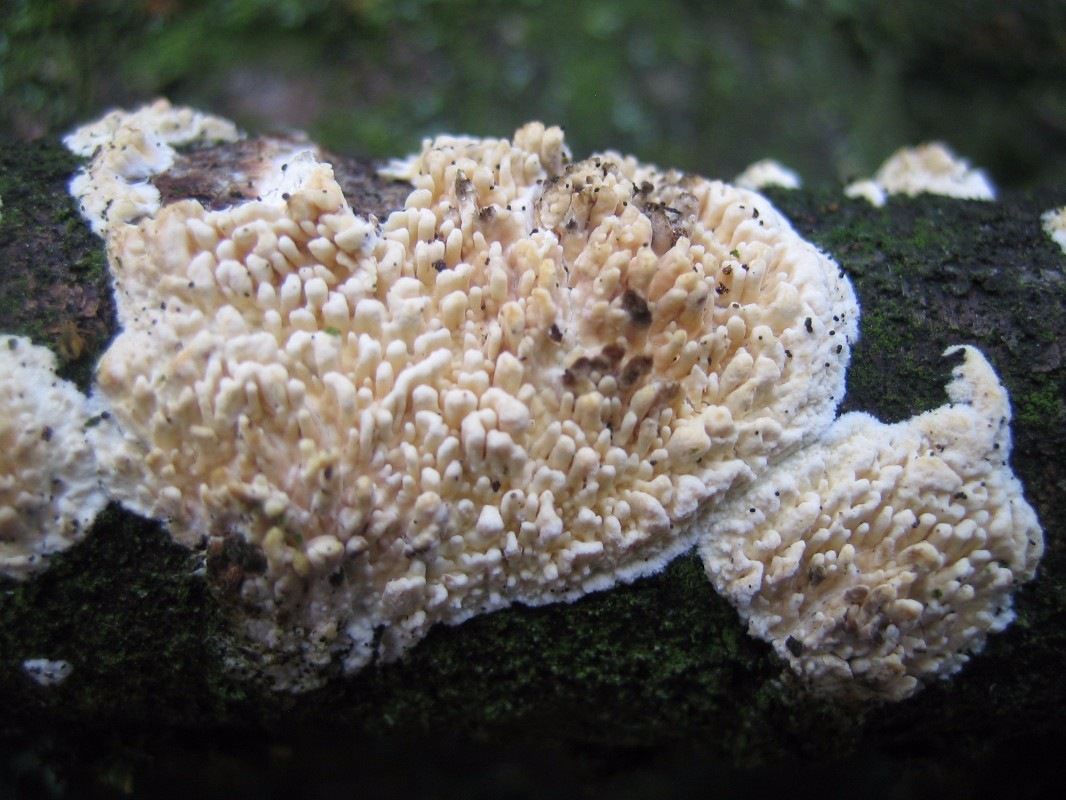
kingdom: Fungi
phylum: Basidiomycota
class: Agaricomycetes
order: Hymenochaetales
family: Schizoporaceae
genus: Xylodon
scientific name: Xylodon radula
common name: grovtandet kalkskind
